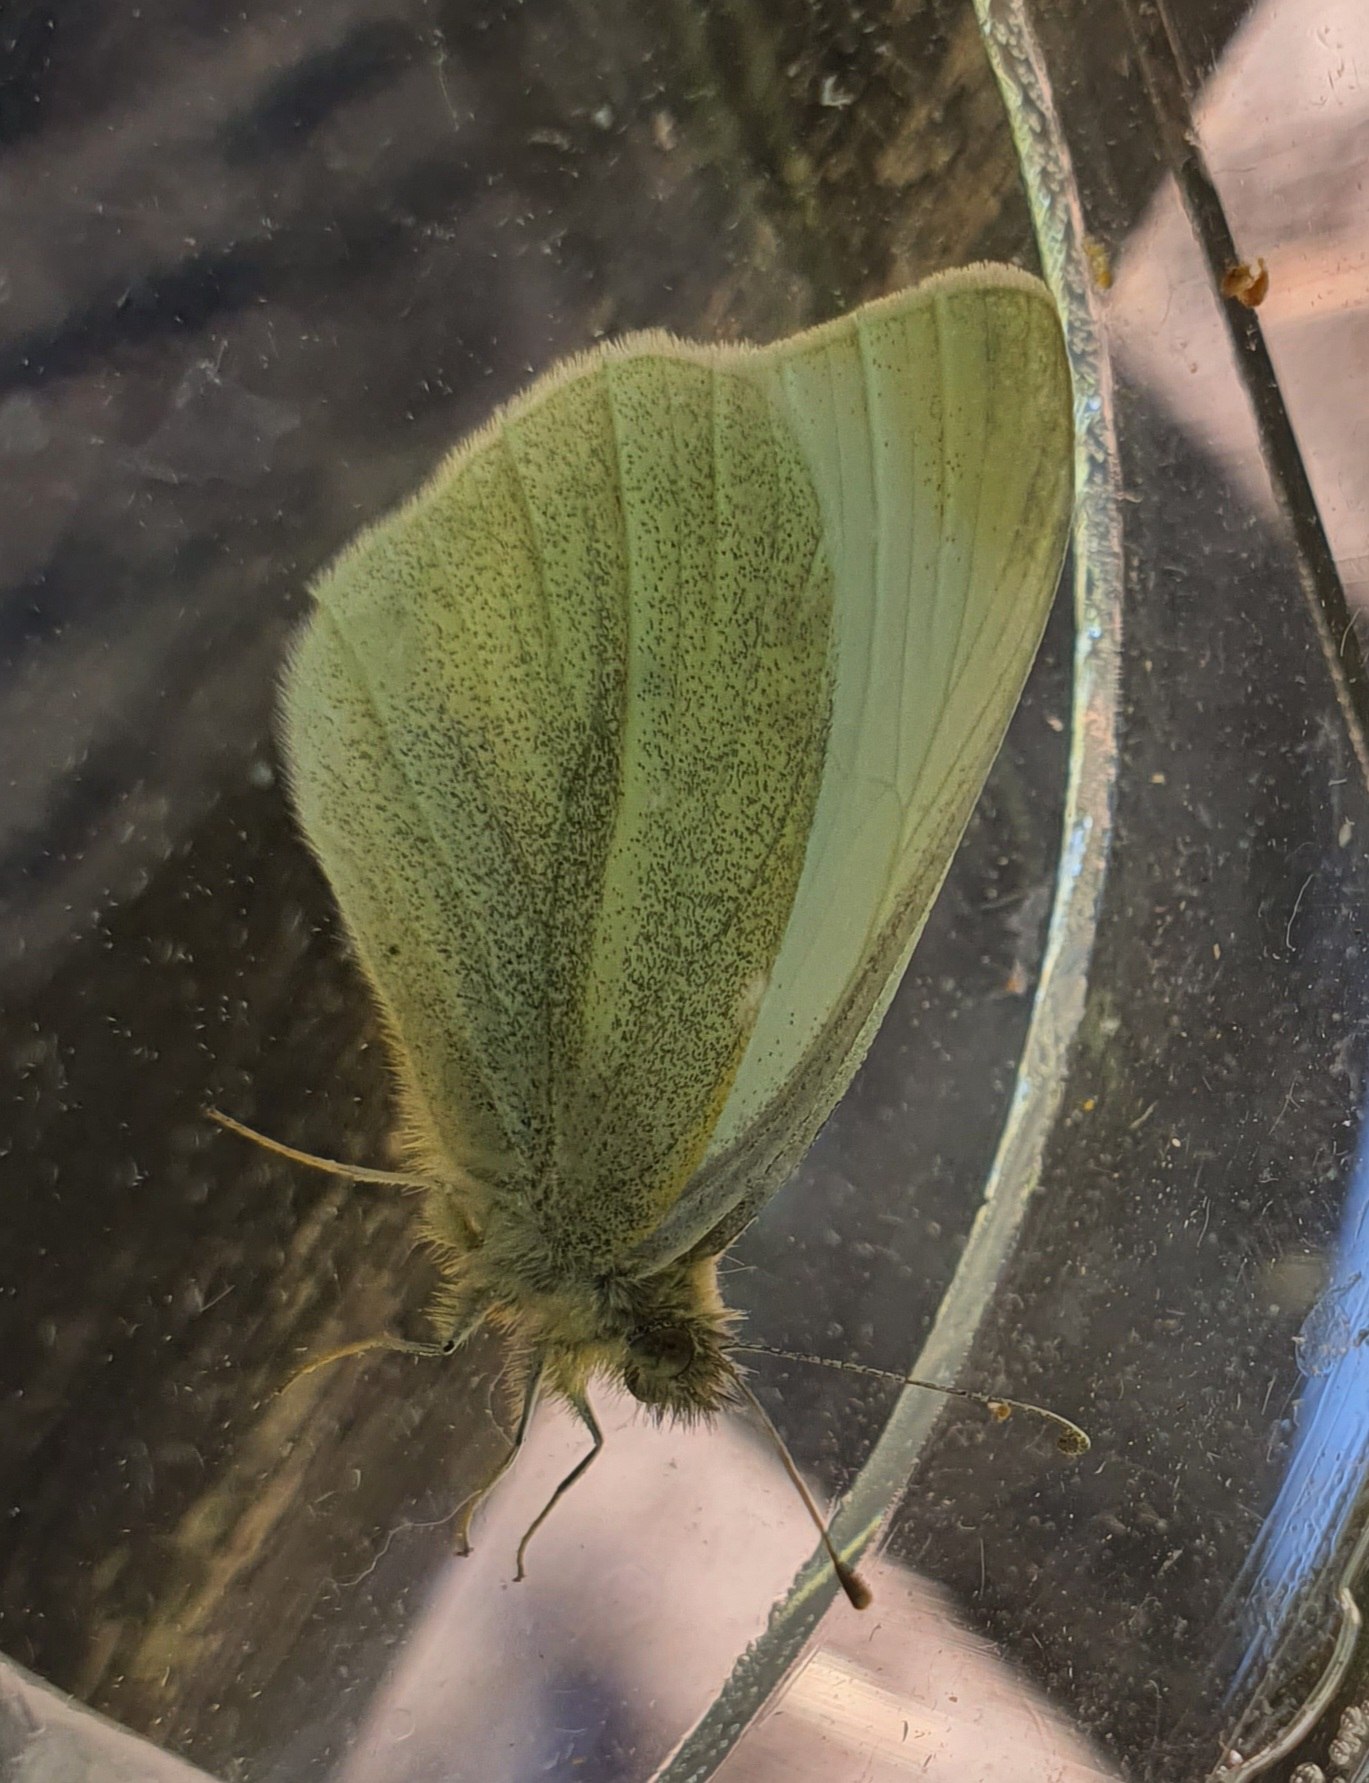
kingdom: Animalia
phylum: Arthropoda
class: Insecta
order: Lepidoptera
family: Pieridae
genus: Pieris
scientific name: Pieris rapae
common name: Lille kålsommerfugl
